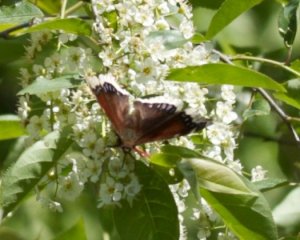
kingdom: Animalia
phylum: Arthropoda
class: Insecta
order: Lepidoptera
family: Nymphalidae
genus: Nymphalis
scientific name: Nymphalis antiopa
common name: Mourning Cloak
